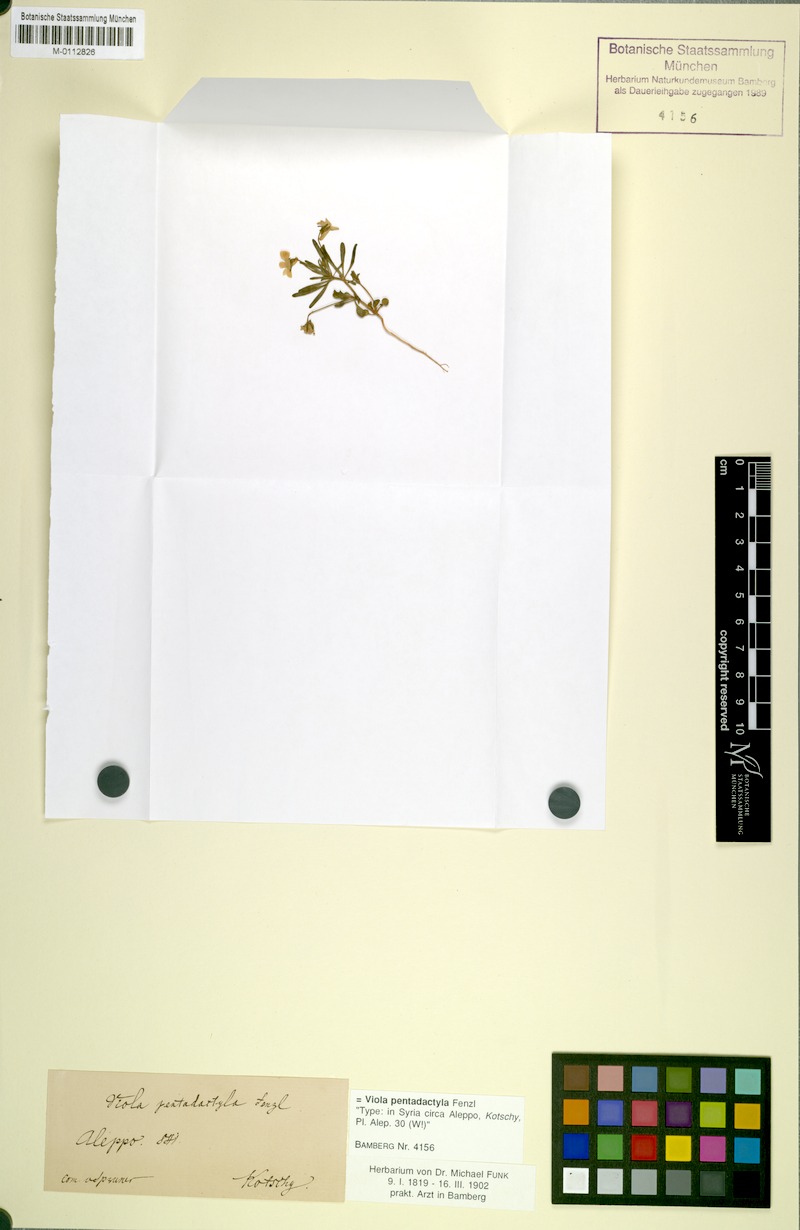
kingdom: Plantae
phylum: Tracheophyta
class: Magnoliopsida
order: Malpighiales
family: Violaceae
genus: Viola
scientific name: Viola pentadactyla
